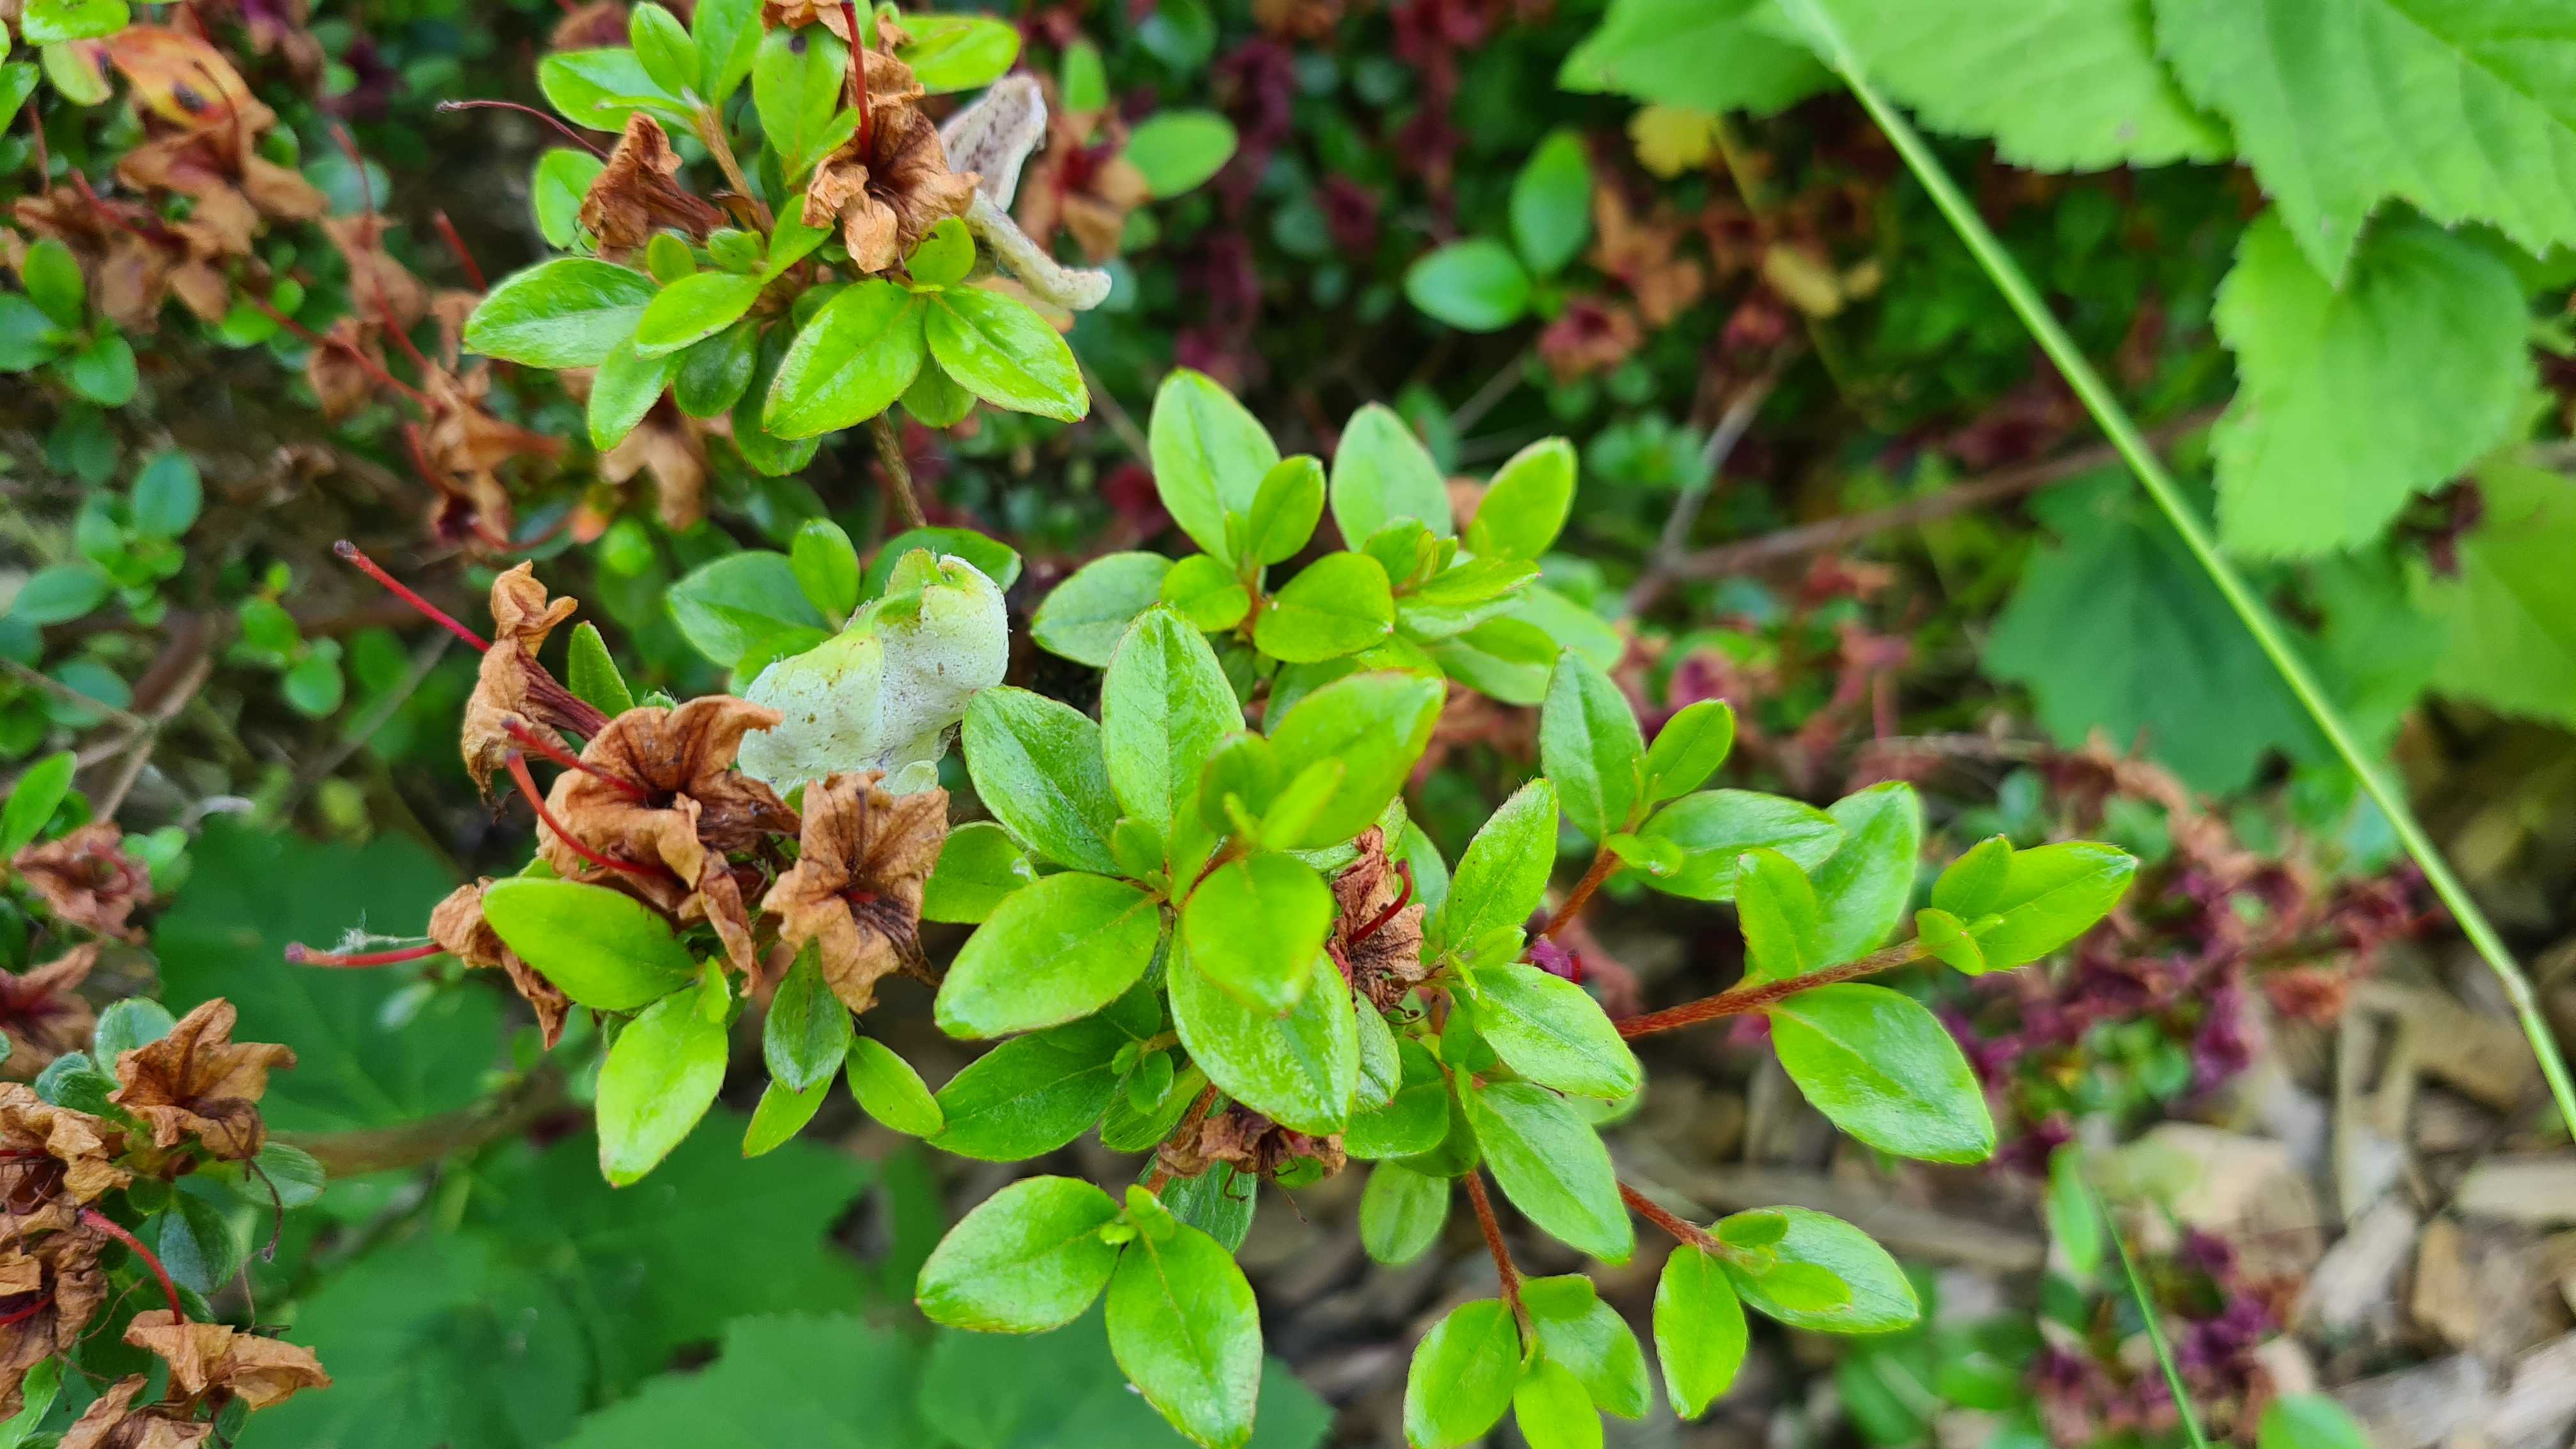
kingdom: Fungi
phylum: Basidiomycota
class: Exobasidiomycetes
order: Exobasidiales
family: Exobasidiaceae
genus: Exobasidium
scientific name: Exobasidium japonicum
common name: Azalea gall
